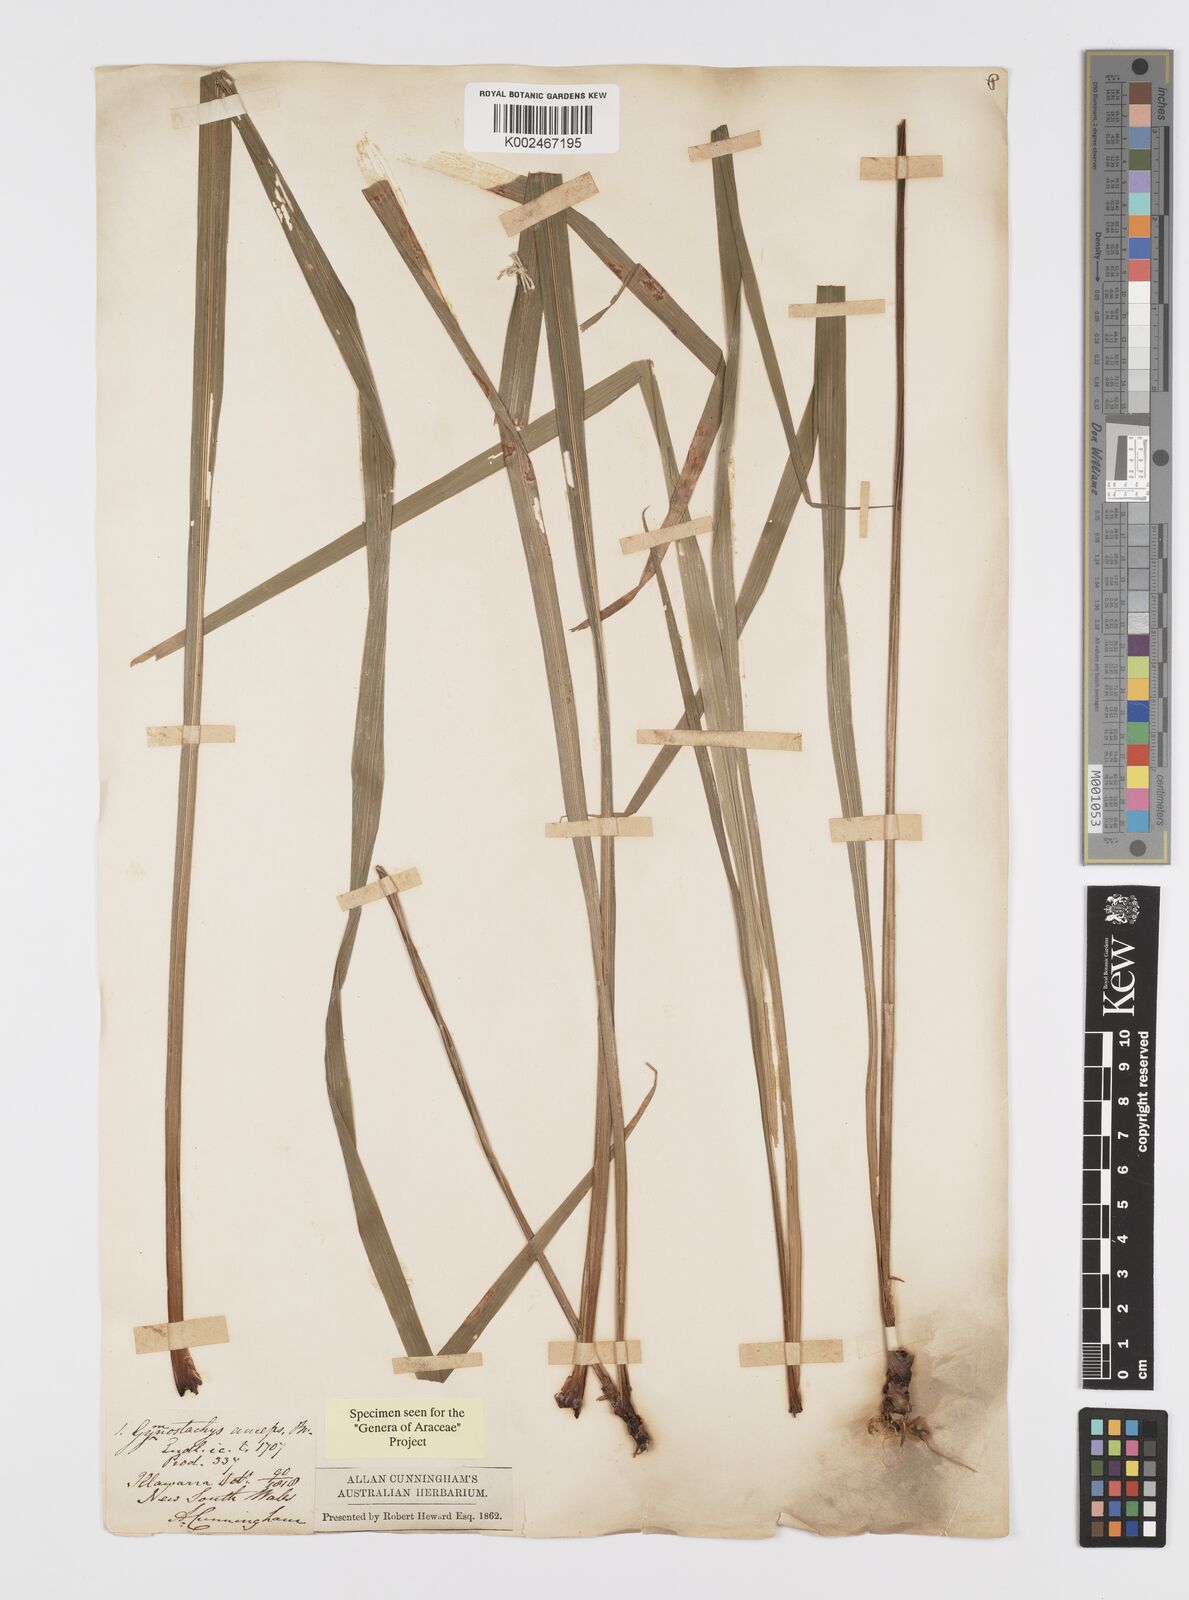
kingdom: Plantae
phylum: Tracheophyta
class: Liliopsida
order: Alismatales
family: Araceae
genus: Gymnostachys
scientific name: Gymnostachys anceps
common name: Settler's-flax
